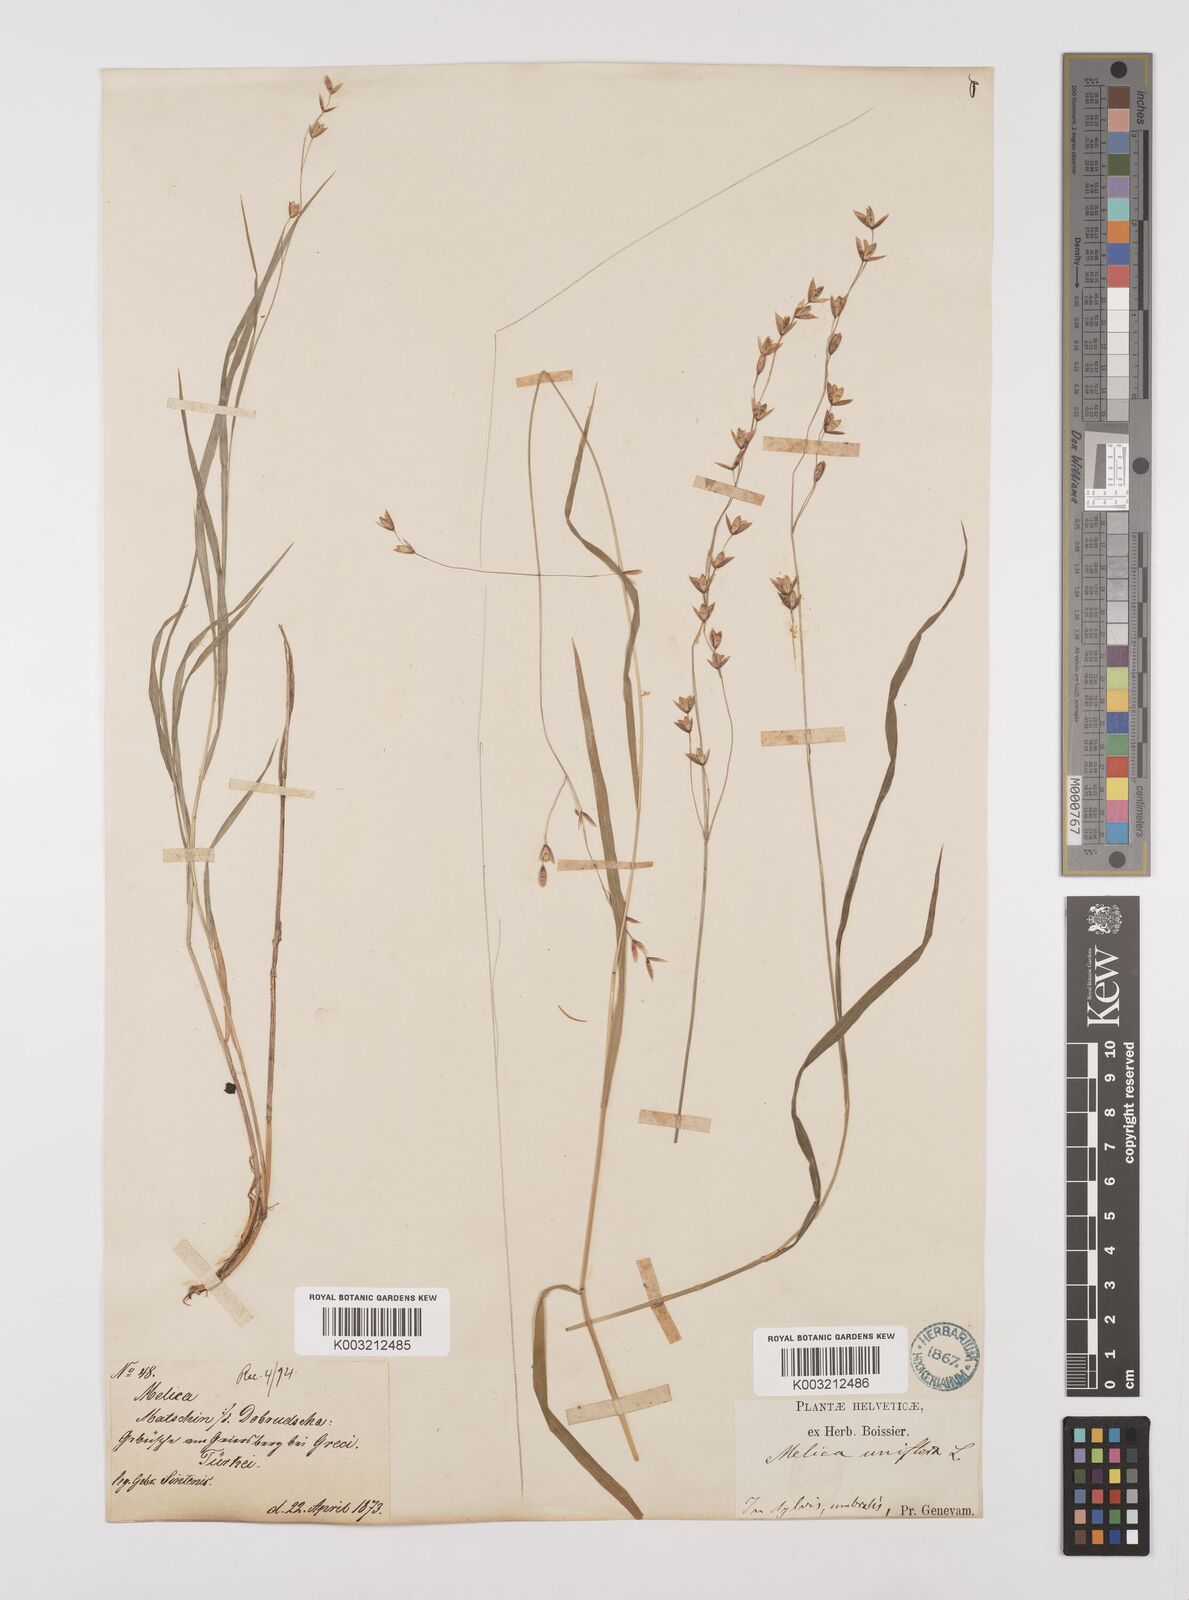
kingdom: Plantae
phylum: Tracheophyta
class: Liliopsida
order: Poales
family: Poaceae
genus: Melica
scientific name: Melica uniflora
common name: Wood melick
